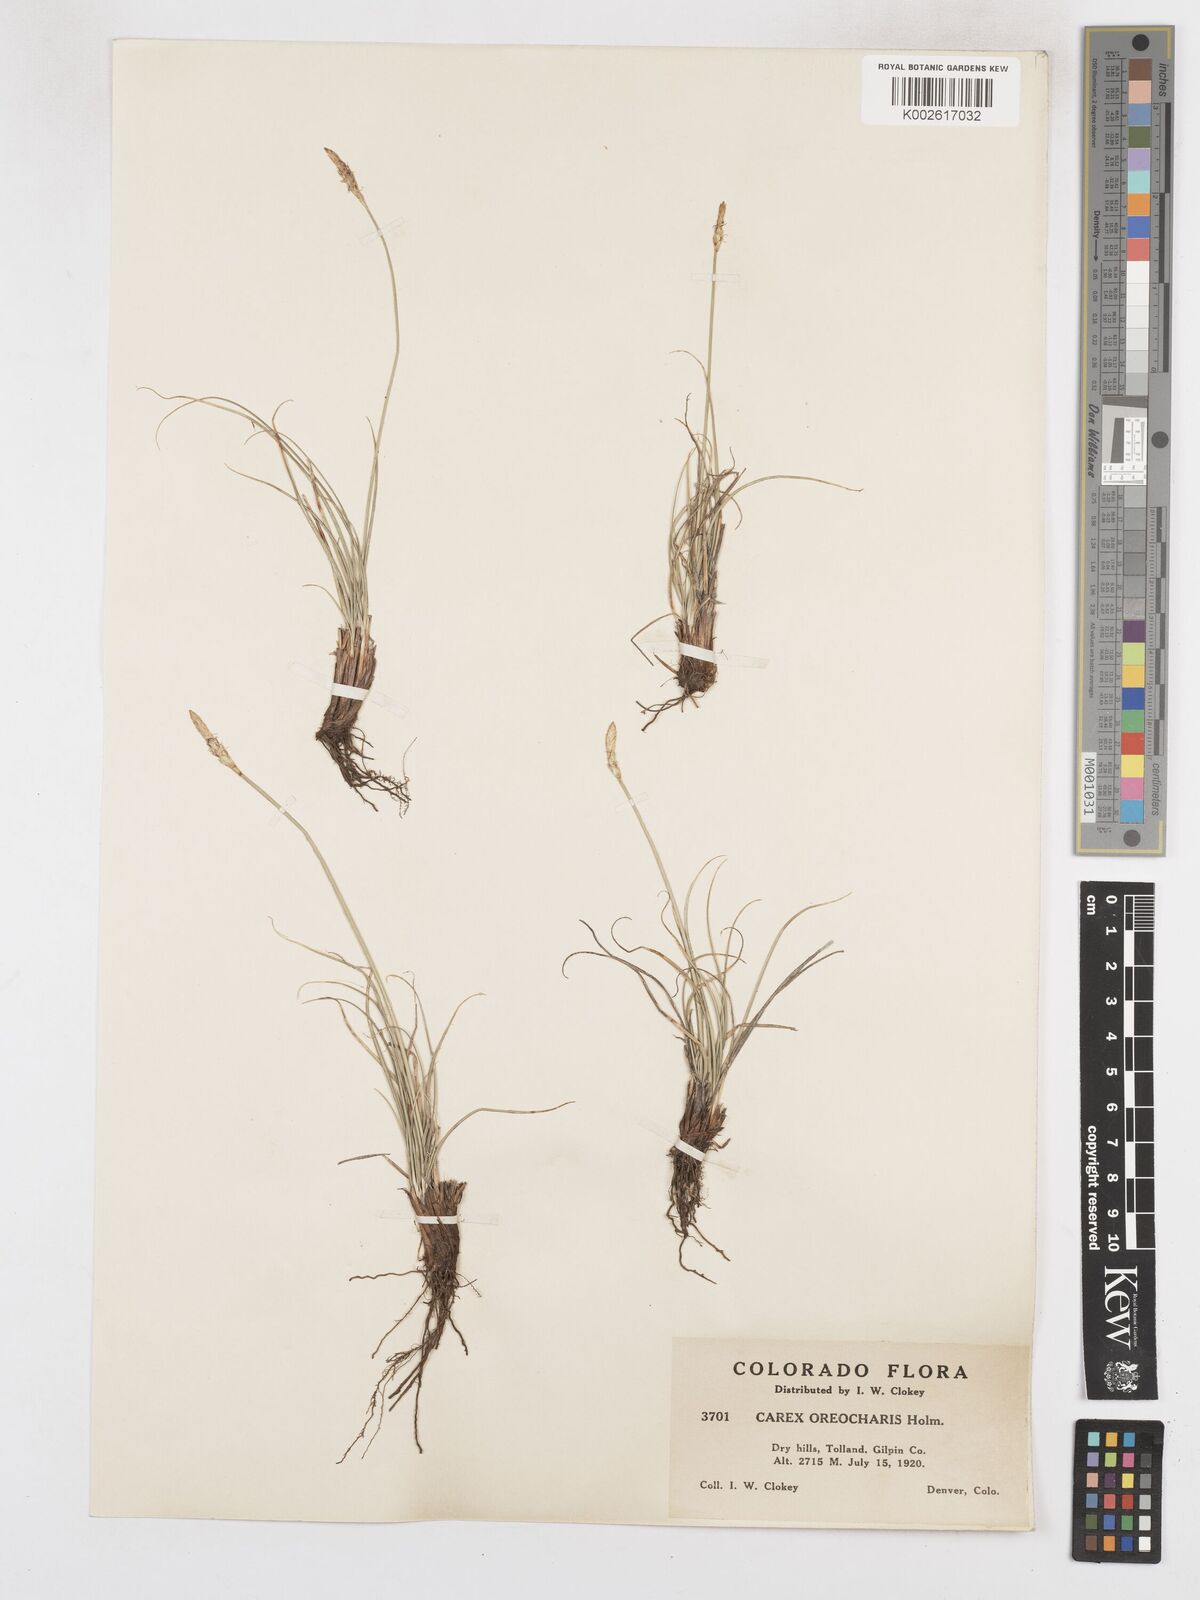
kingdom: Plantae
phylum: Tracheophyta
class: Liliopsida
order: Poales
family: Cyperaceae
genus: Carex
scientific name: Carex oreocharis
